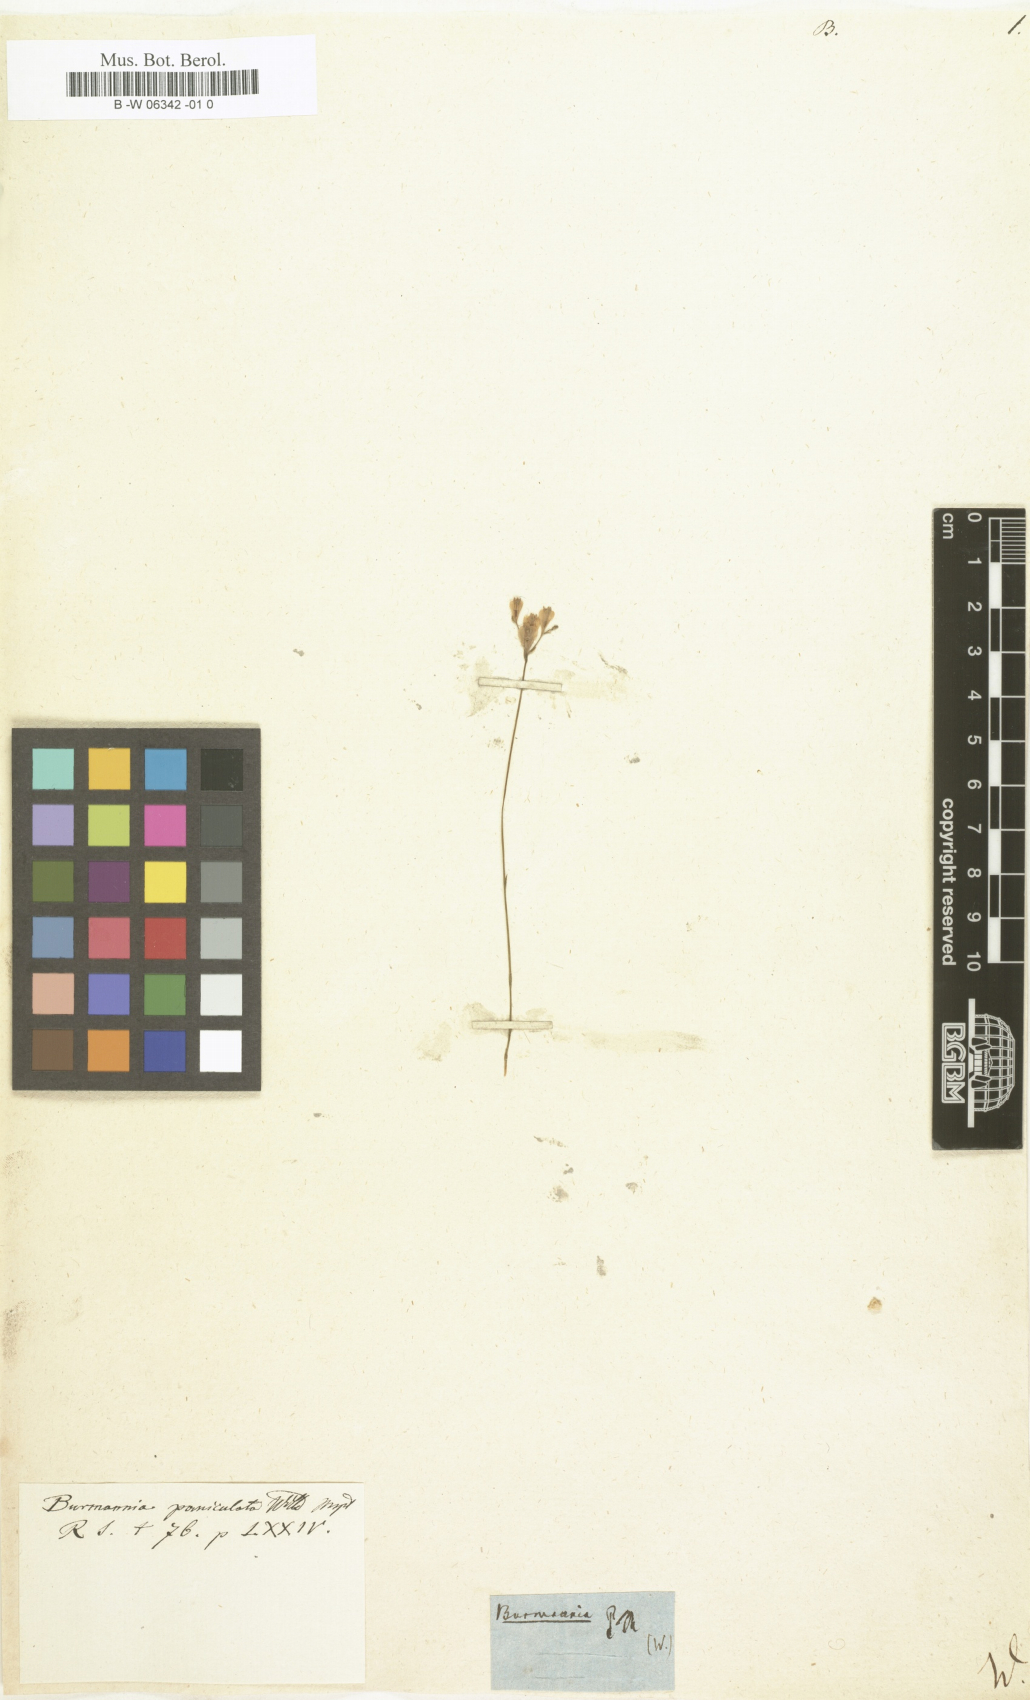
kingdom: Plantae
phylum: Tracheophyta
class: Liliopsida
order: Dioscoreales
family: Burmanniaceae
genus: Burmannia
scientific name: Burmannia madagascariensis
